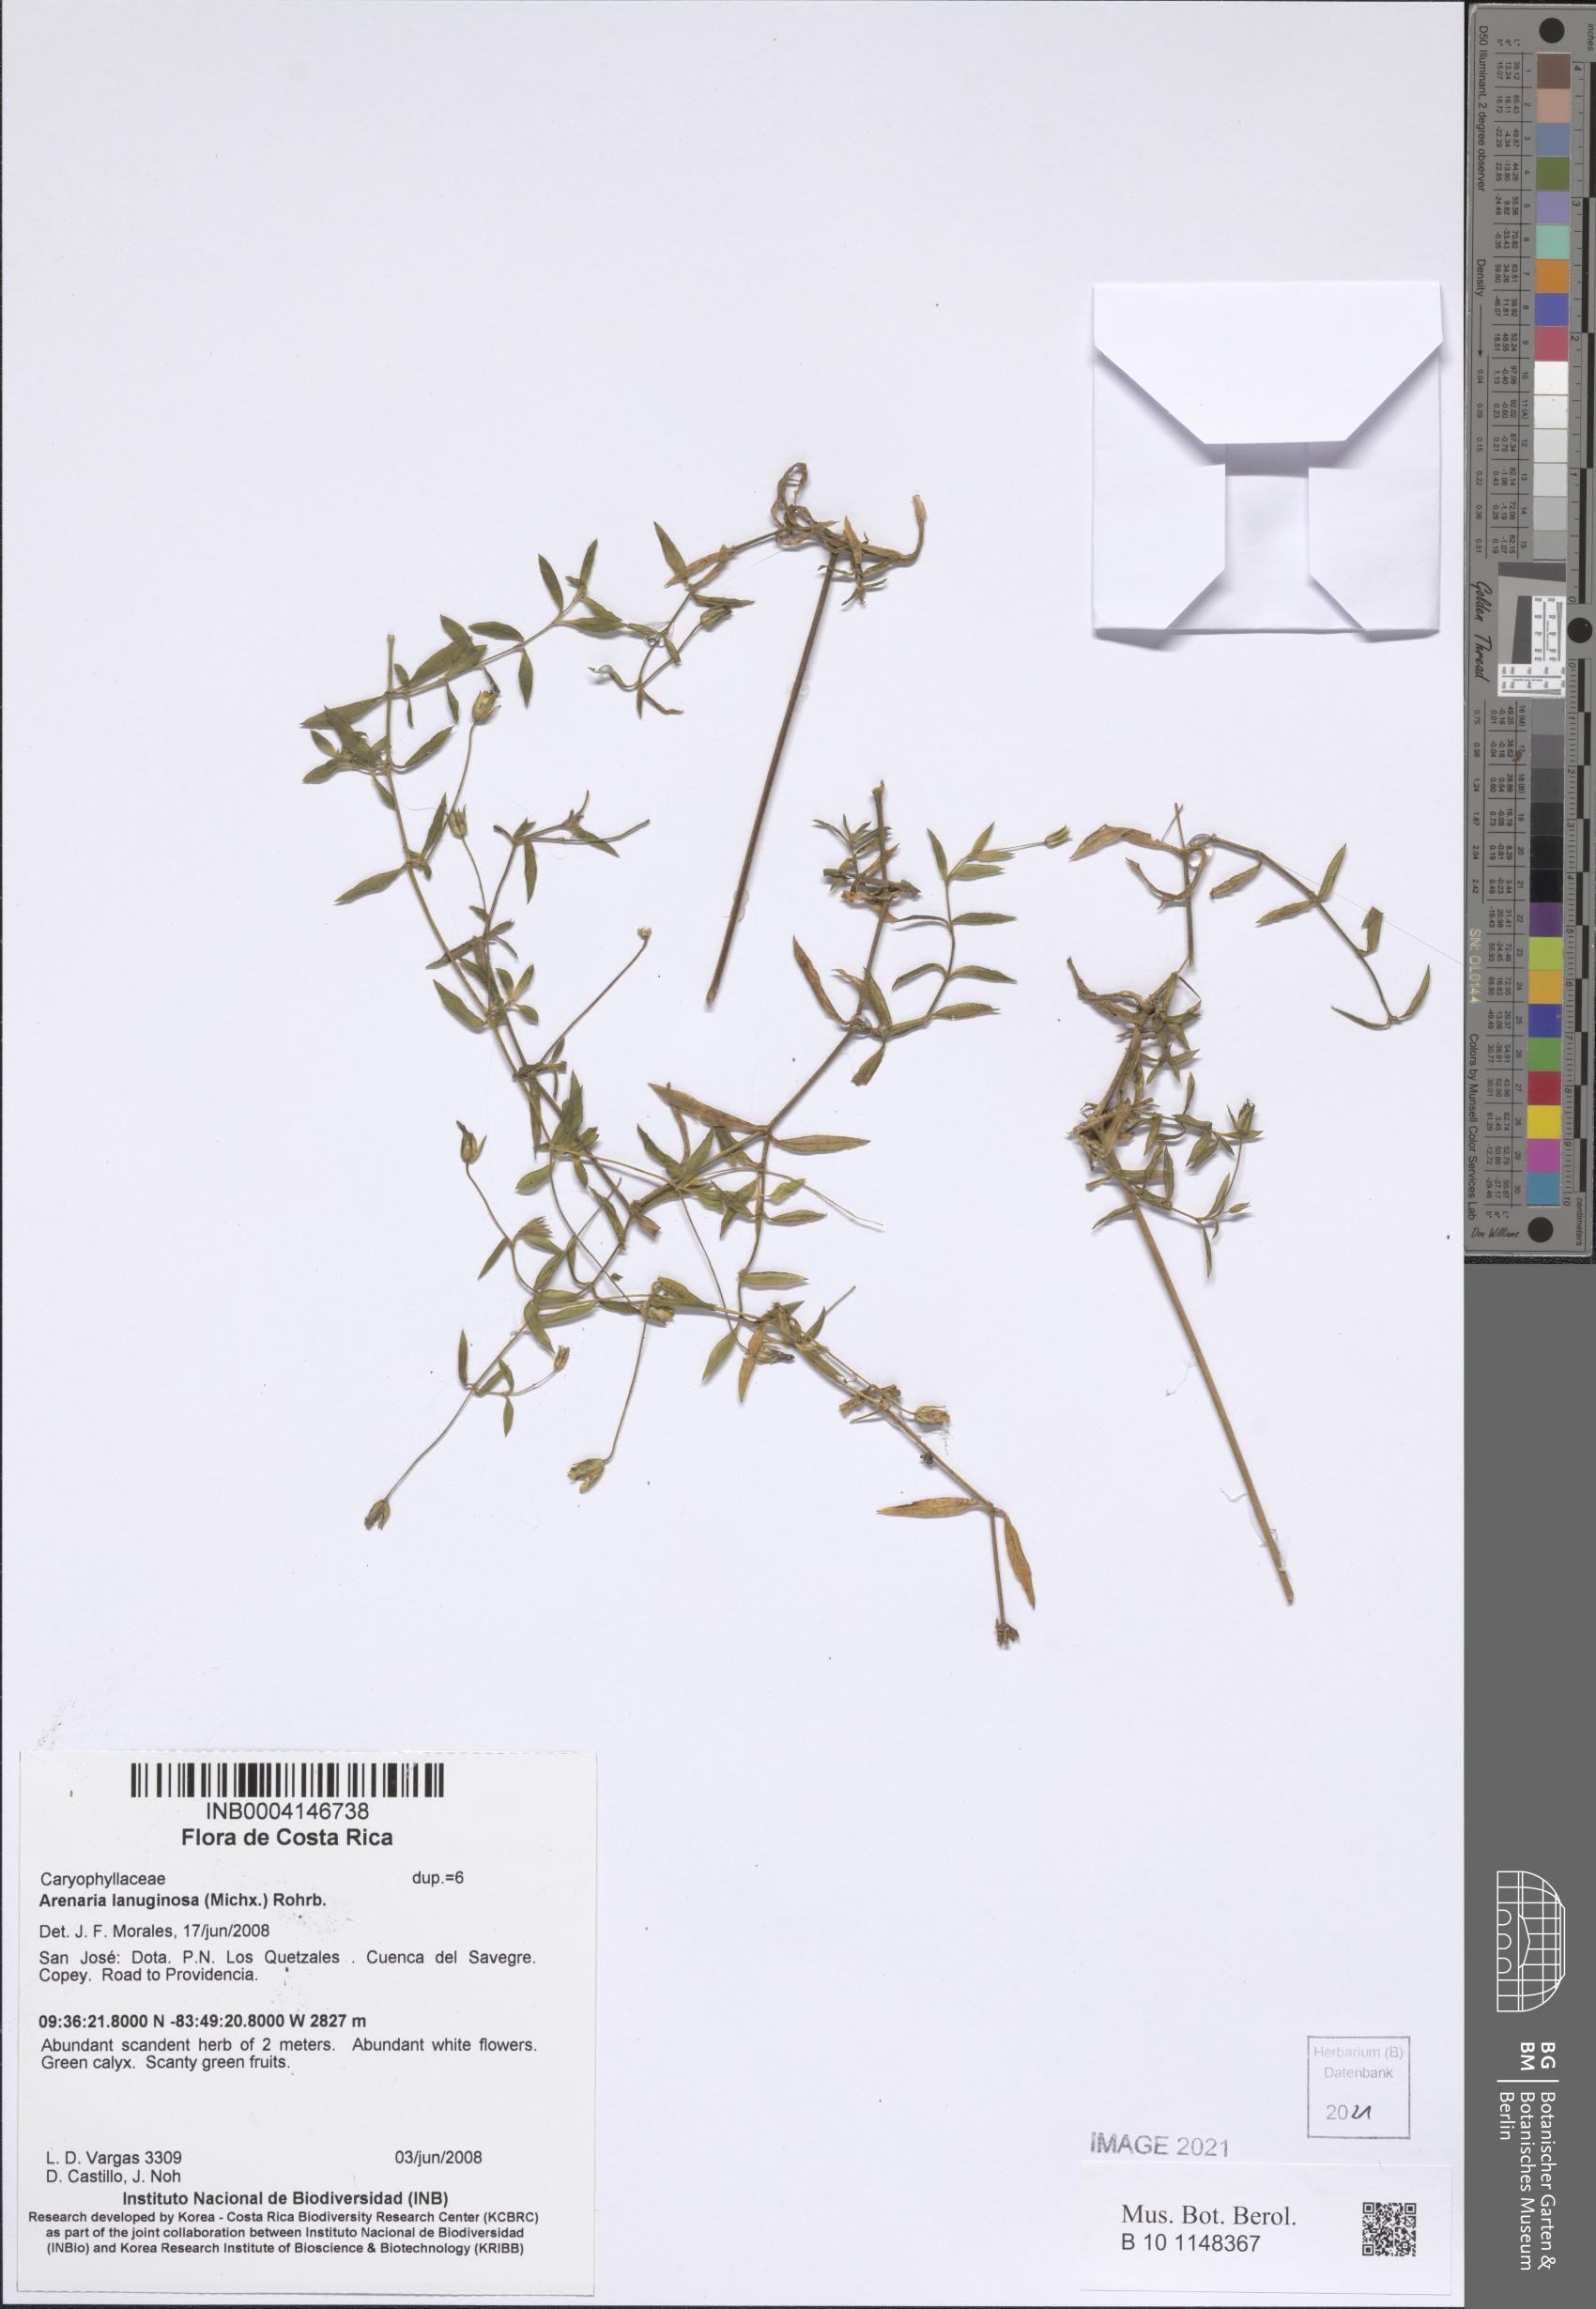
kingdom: Plantae
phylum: Tracheophyta
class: Magnoliopsida
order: Caryophyllales
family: Caryophyllaceae
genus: Arenaria
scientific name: Arenaria lanuginosa
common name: Spread sandwort
